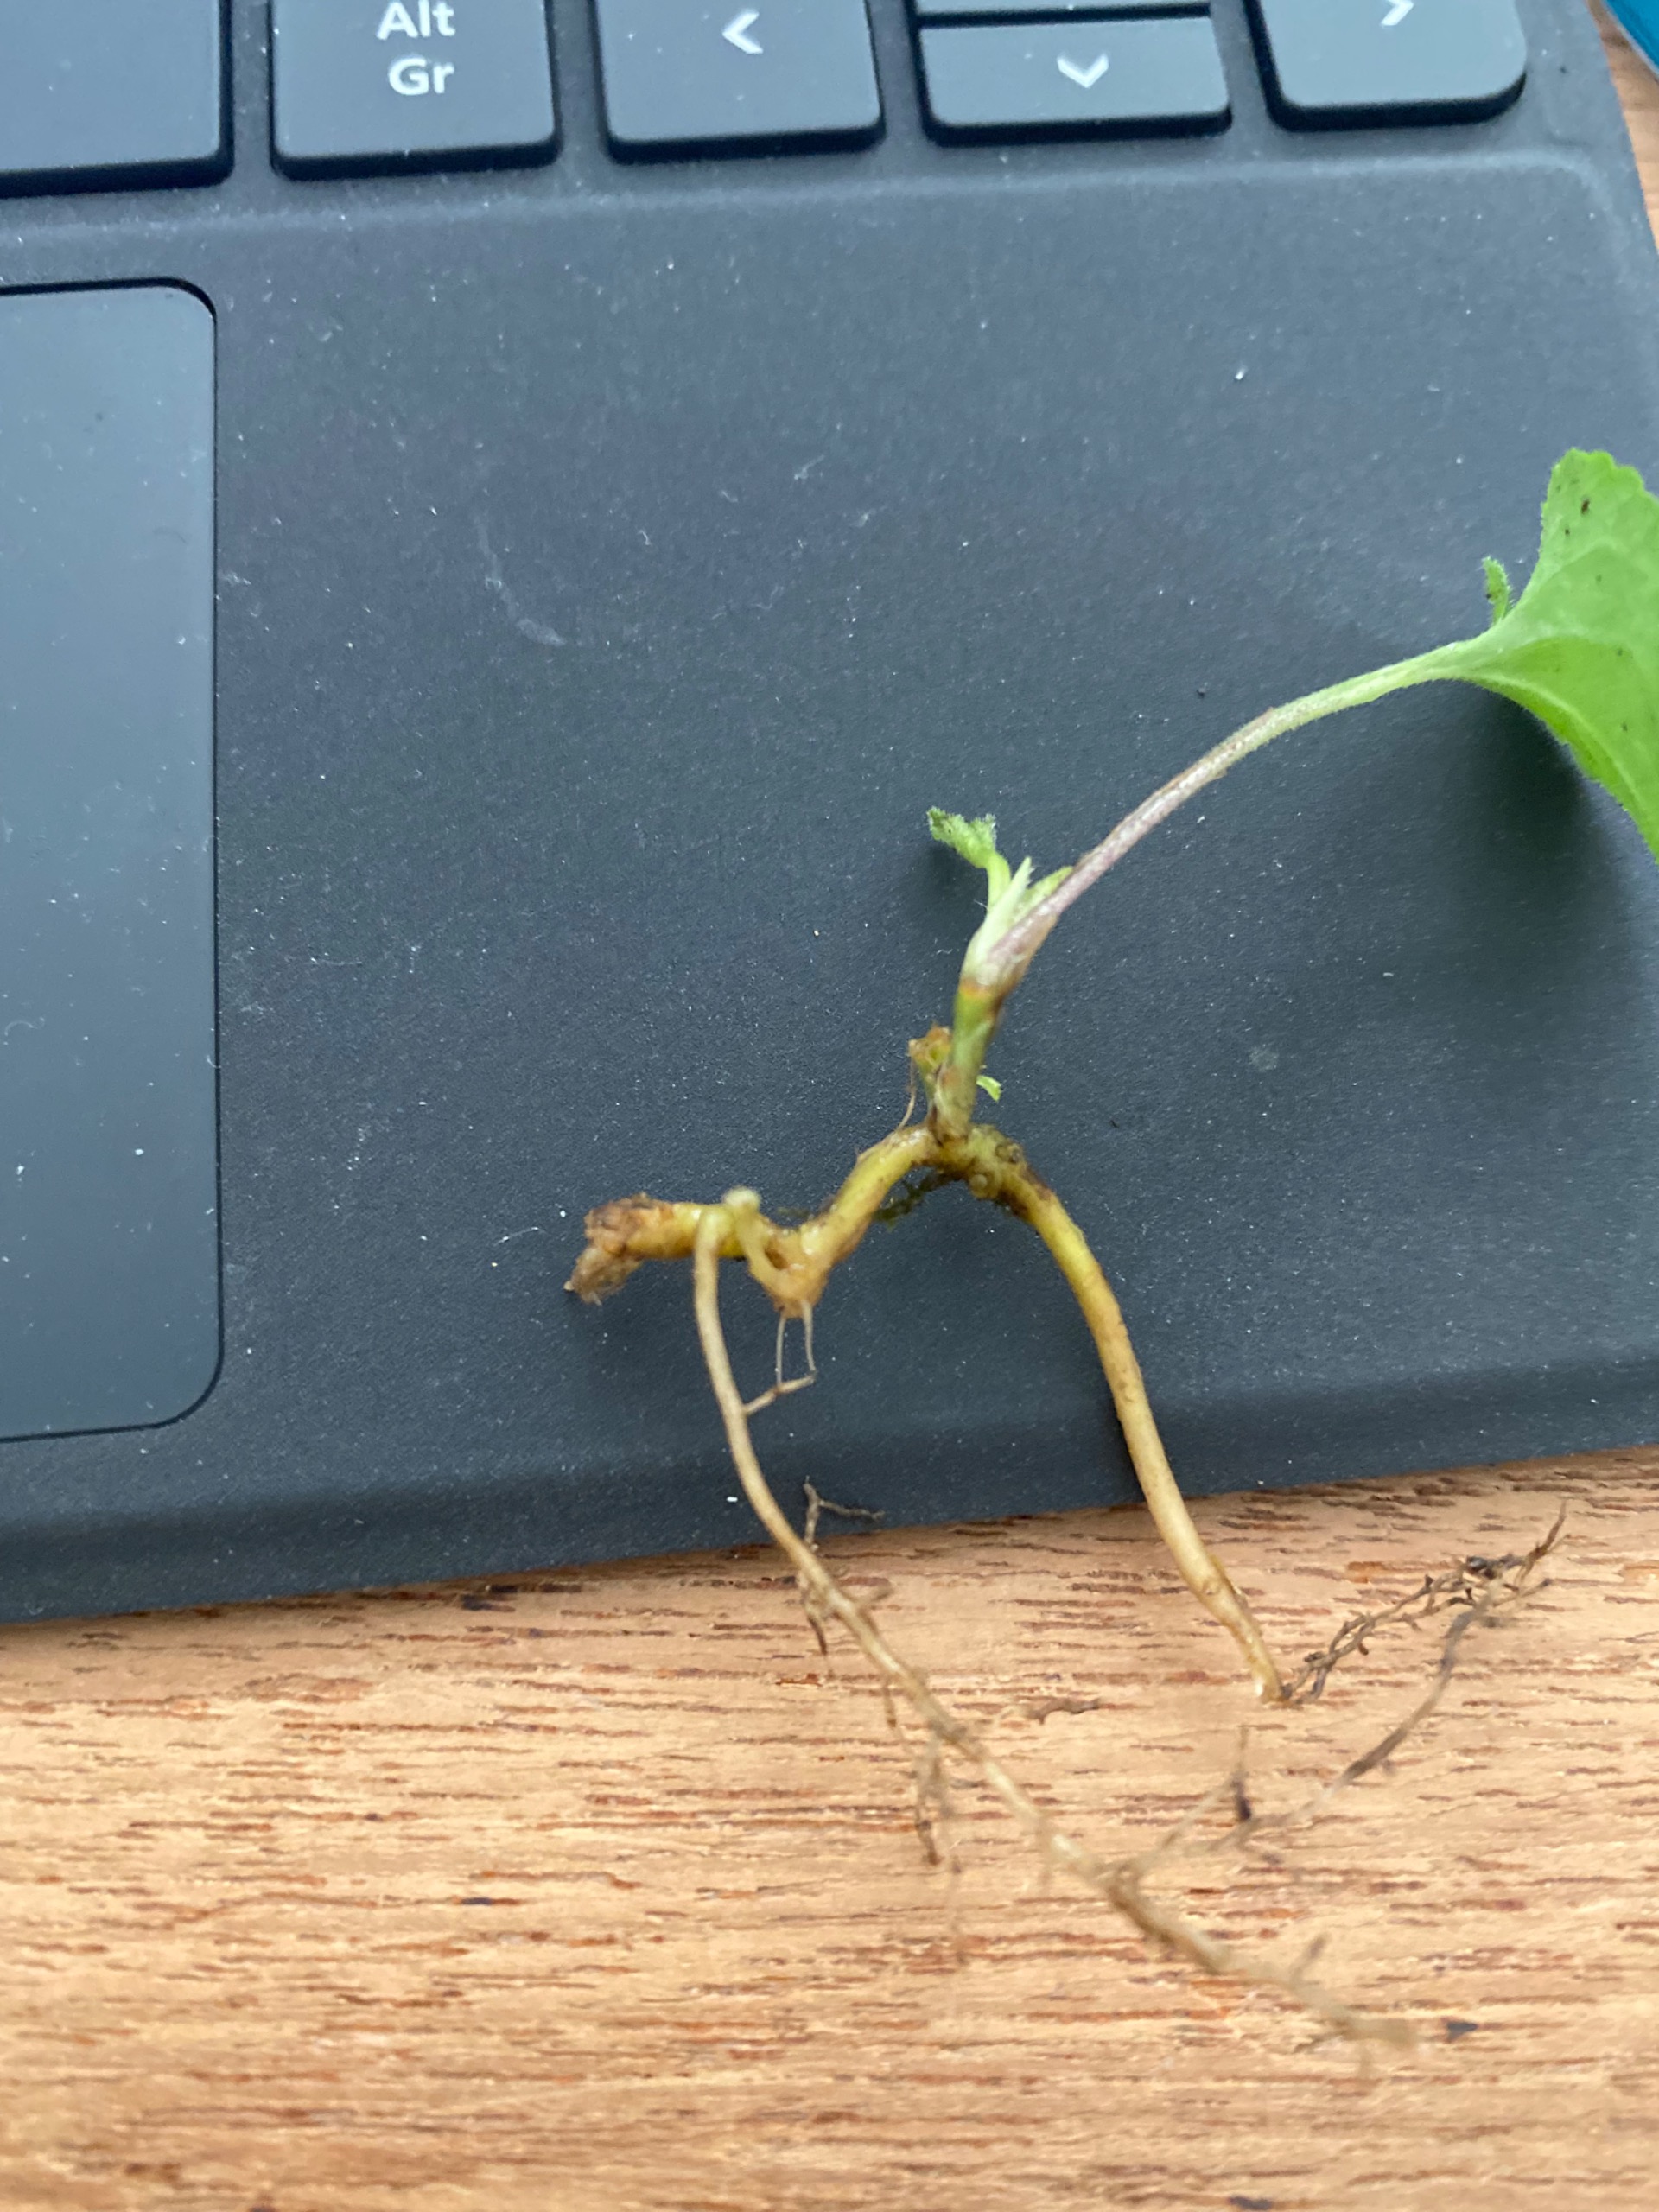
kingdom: Plantae
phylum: Tracheophyta
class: Magnoliopsida
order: Malpighiales
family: Violaceae
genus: Viola
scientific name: Viola odorata
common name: Marts-viol
